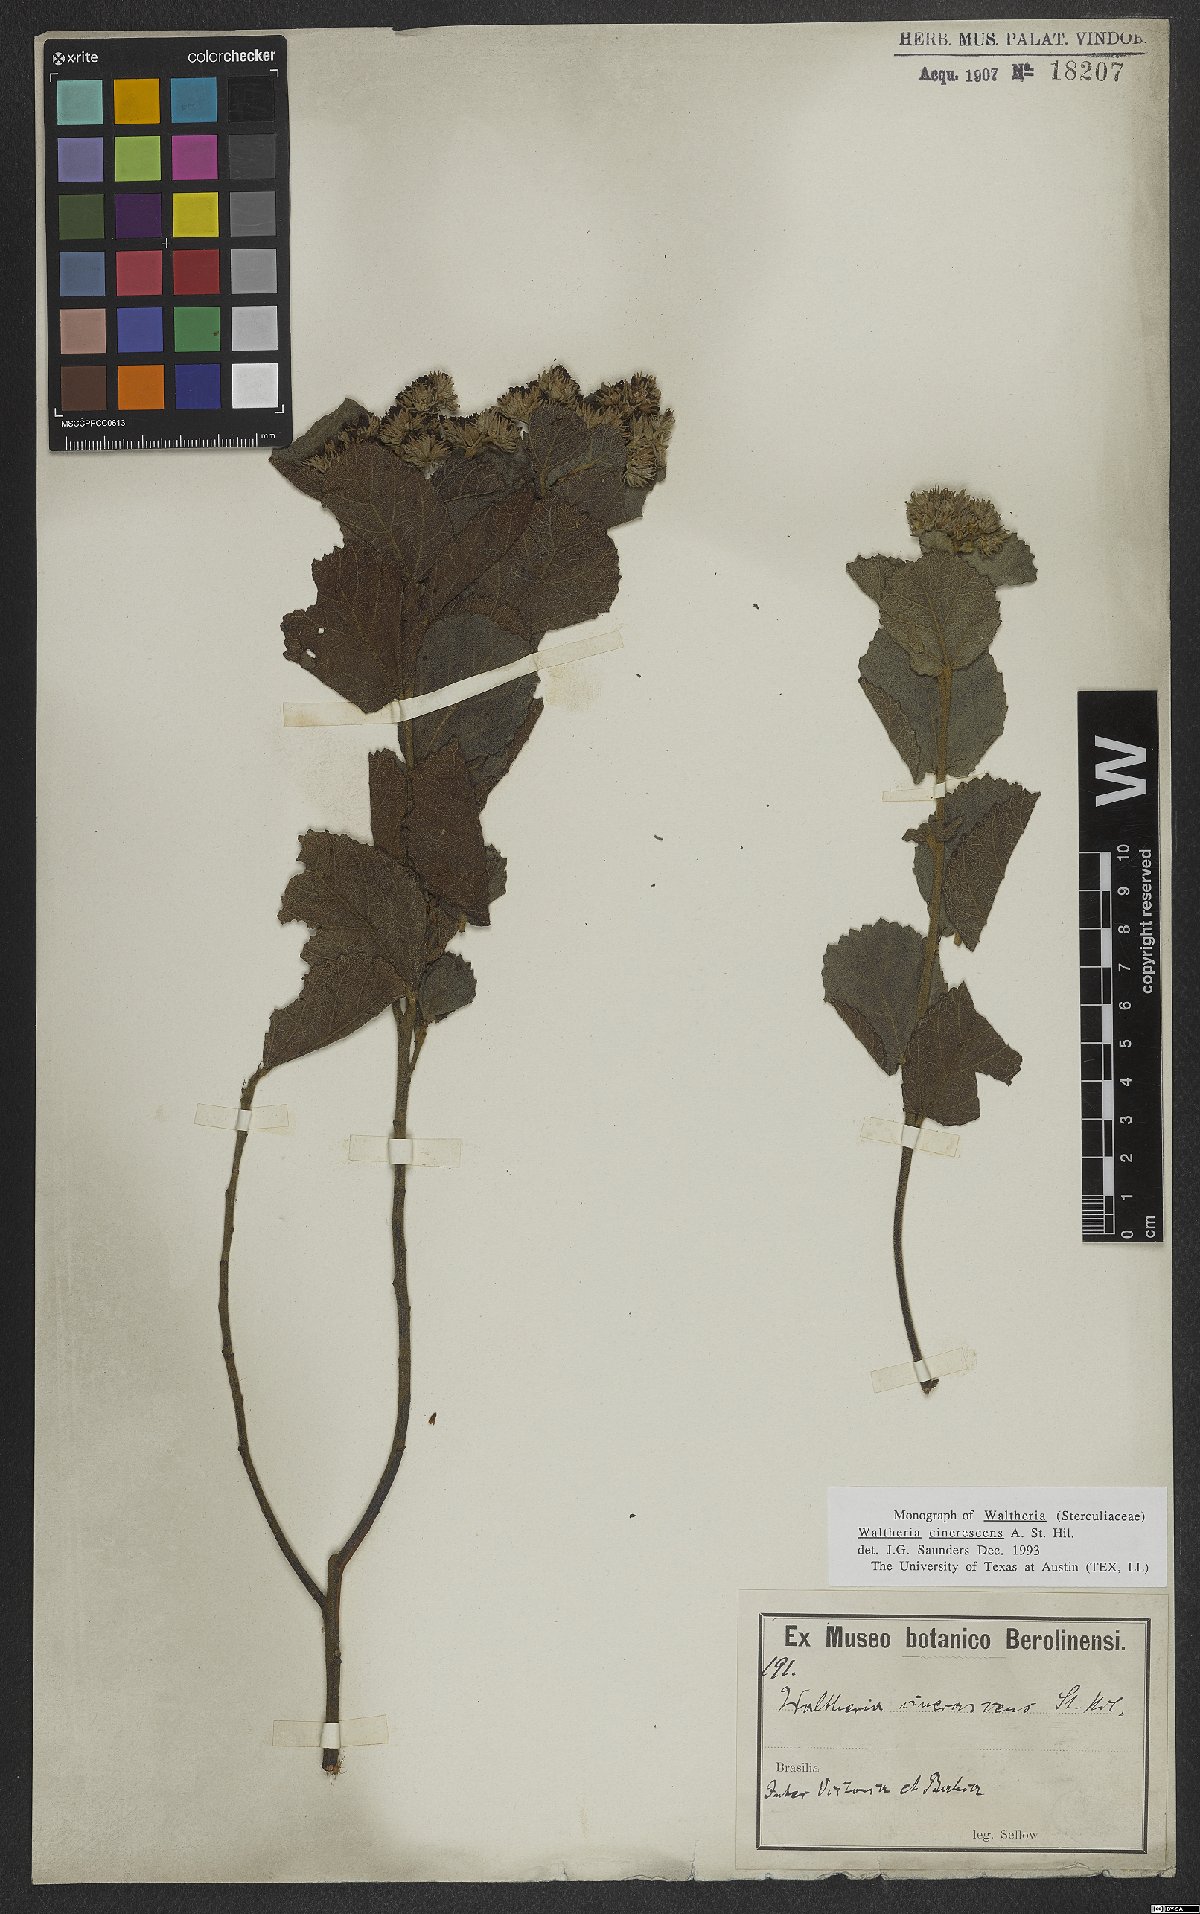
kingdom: Plantae
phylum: Tracheophyta
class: Magnoliopsida
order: Malvales
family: Malvaceae
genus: Waltheria
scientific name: Waltheria cinerescens
